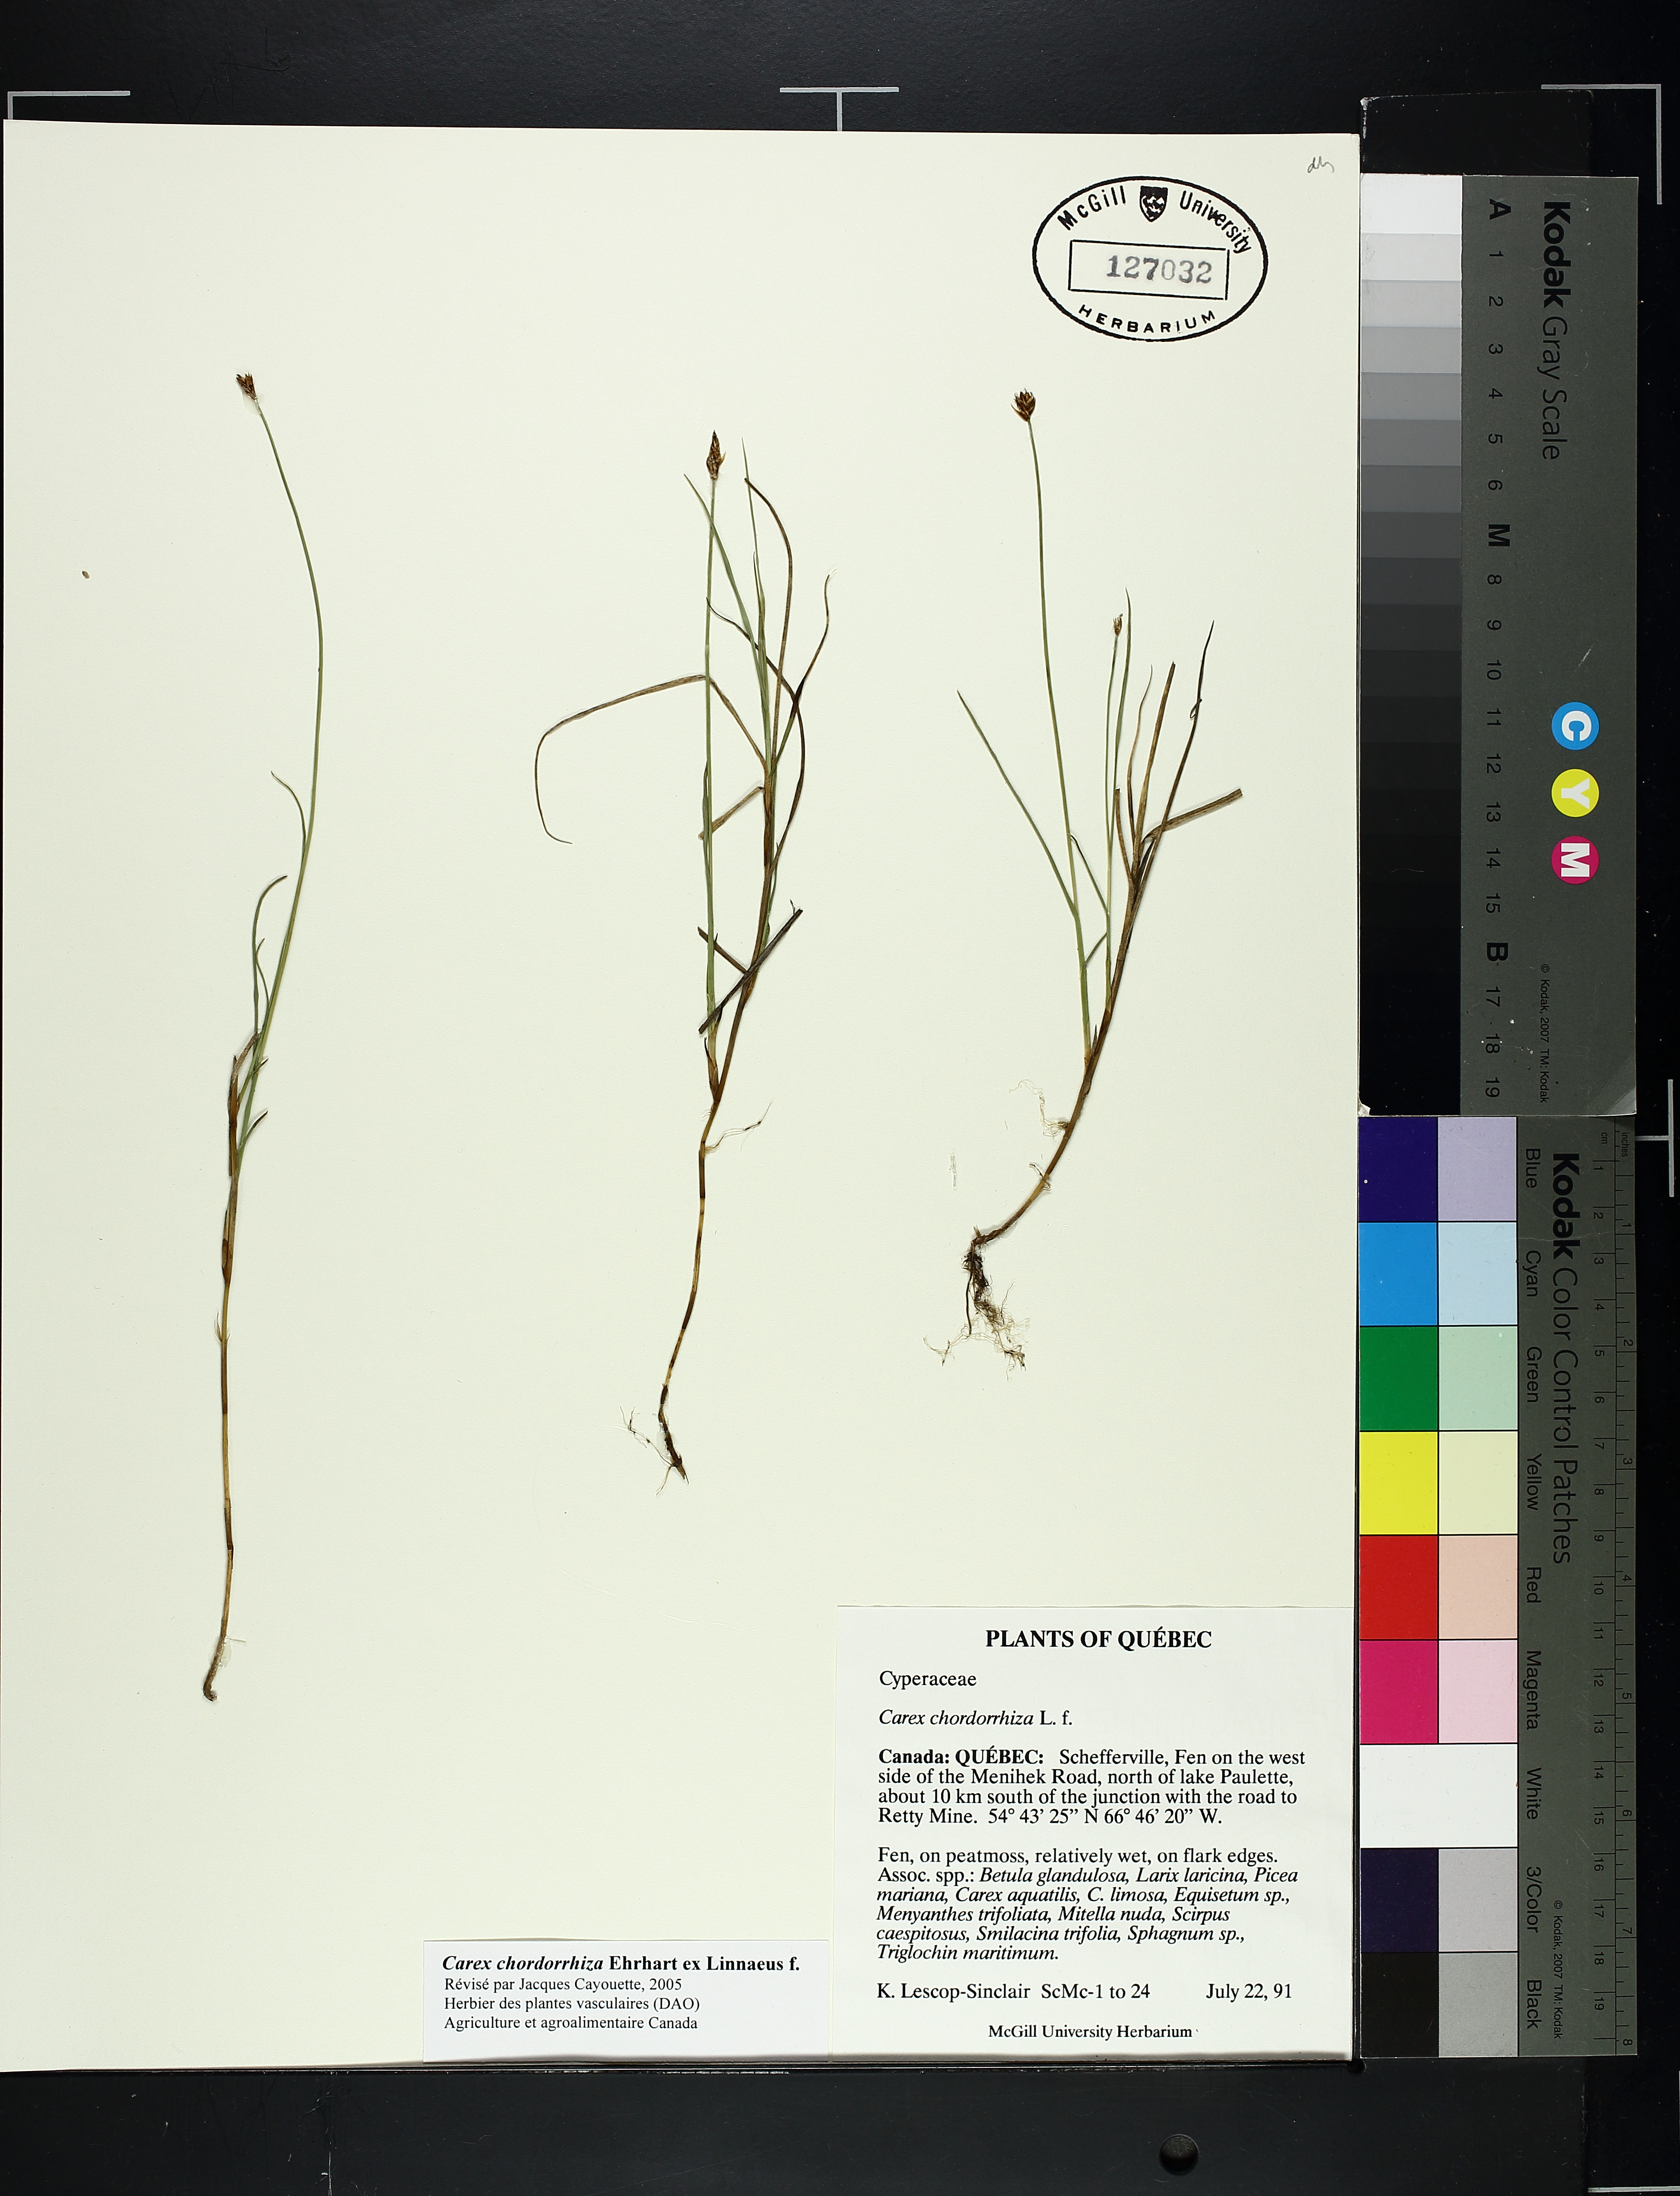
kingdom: Plantae
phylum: Tracheophyta
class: Liliopsida
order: Poales
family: Cyperaceae
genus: Carex
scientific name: Carex
